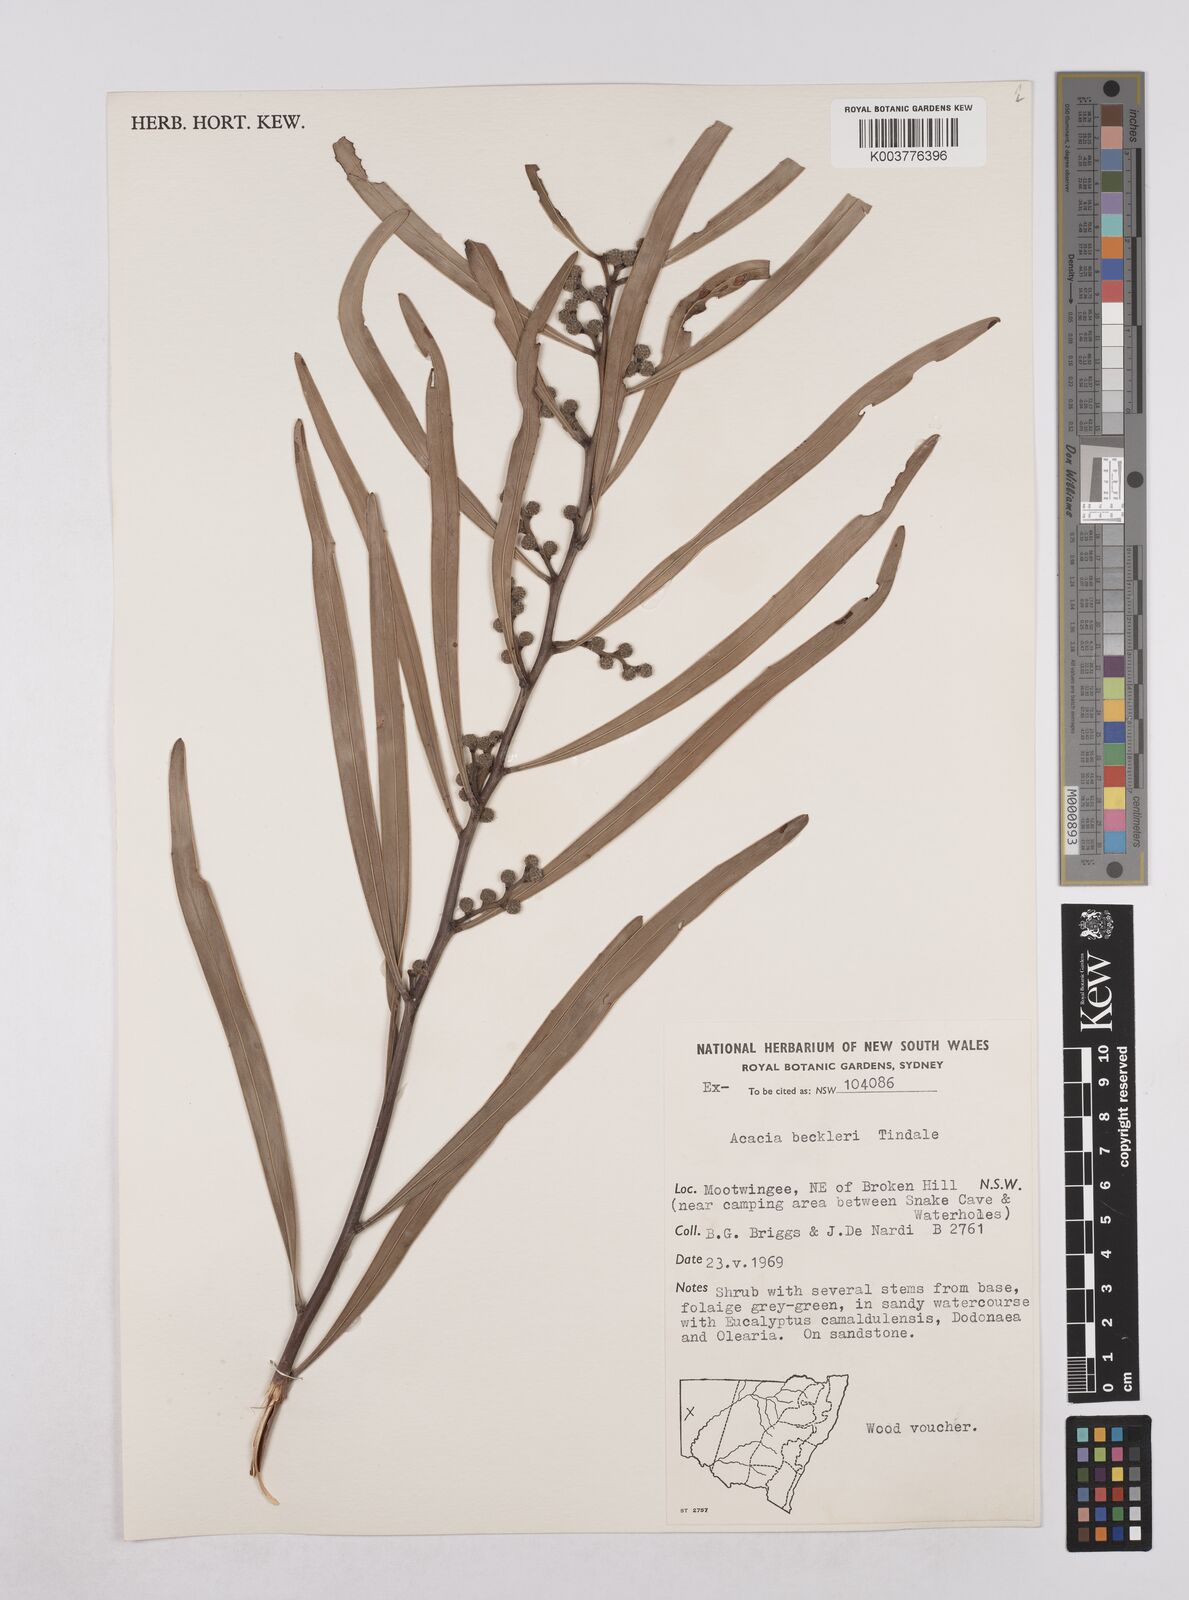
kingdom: Plantae
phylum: Tracheophyta
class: Magnoliopsida
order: Fabales
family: Fabaceae
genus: Acacia
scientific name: Acacia beckleri
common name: Barrier range wattle
